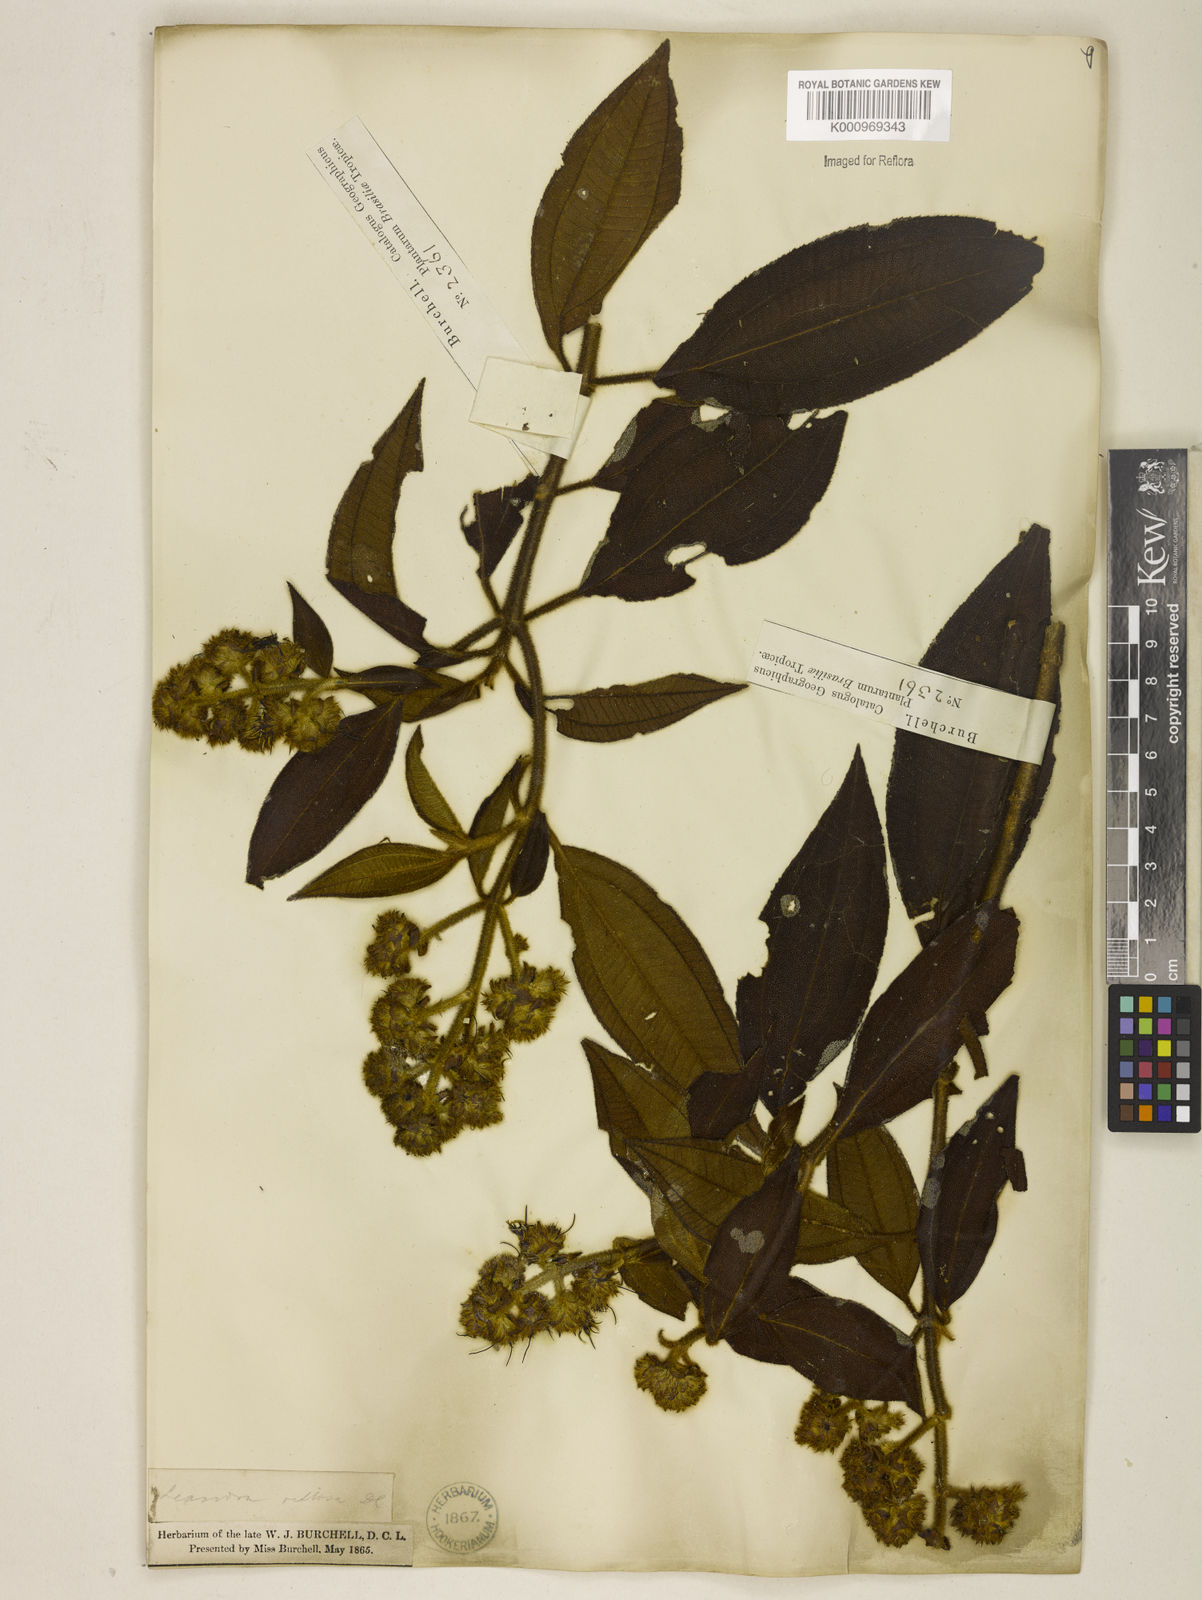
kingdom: Plantae
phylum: Tracheophyta
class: Magnoliopsida
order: Myrtales
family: Melastomataceae
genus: Miconia
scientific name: Miconia melastomoides
